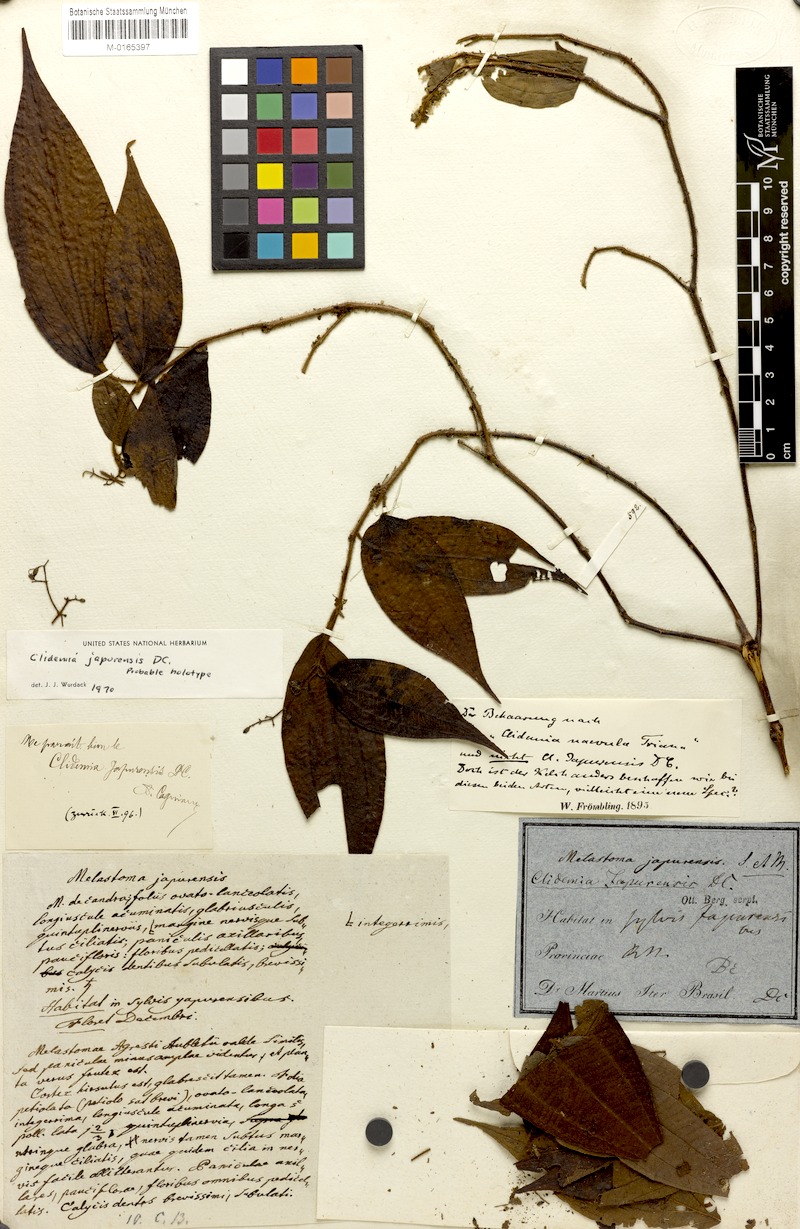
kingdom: Plantae
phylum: Tracheophyta
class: Magnoliopsida
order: Myrtales
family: Melastomataceae
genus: Miconia
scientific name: Miconia heteroclita
